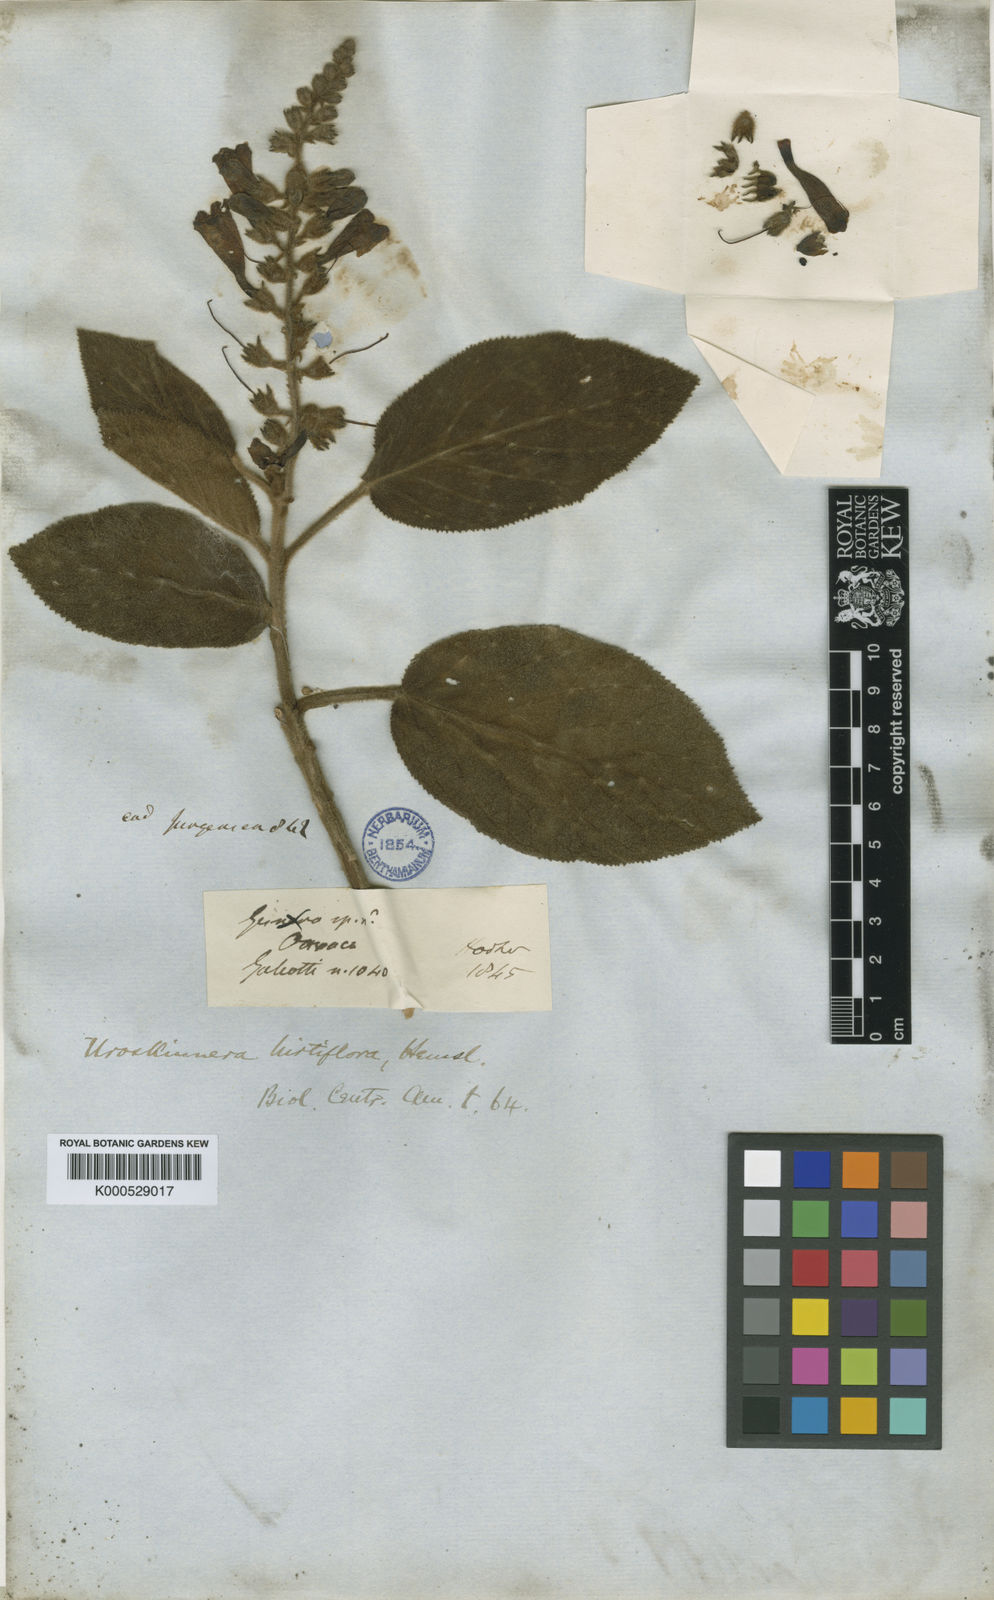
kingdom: Plantae
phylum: Tracheophyta
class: Magnoliopsida
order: Lamiales
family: Plantaginaceae
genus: Uroskinnera
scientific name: Uroskinnera hirtiflora
